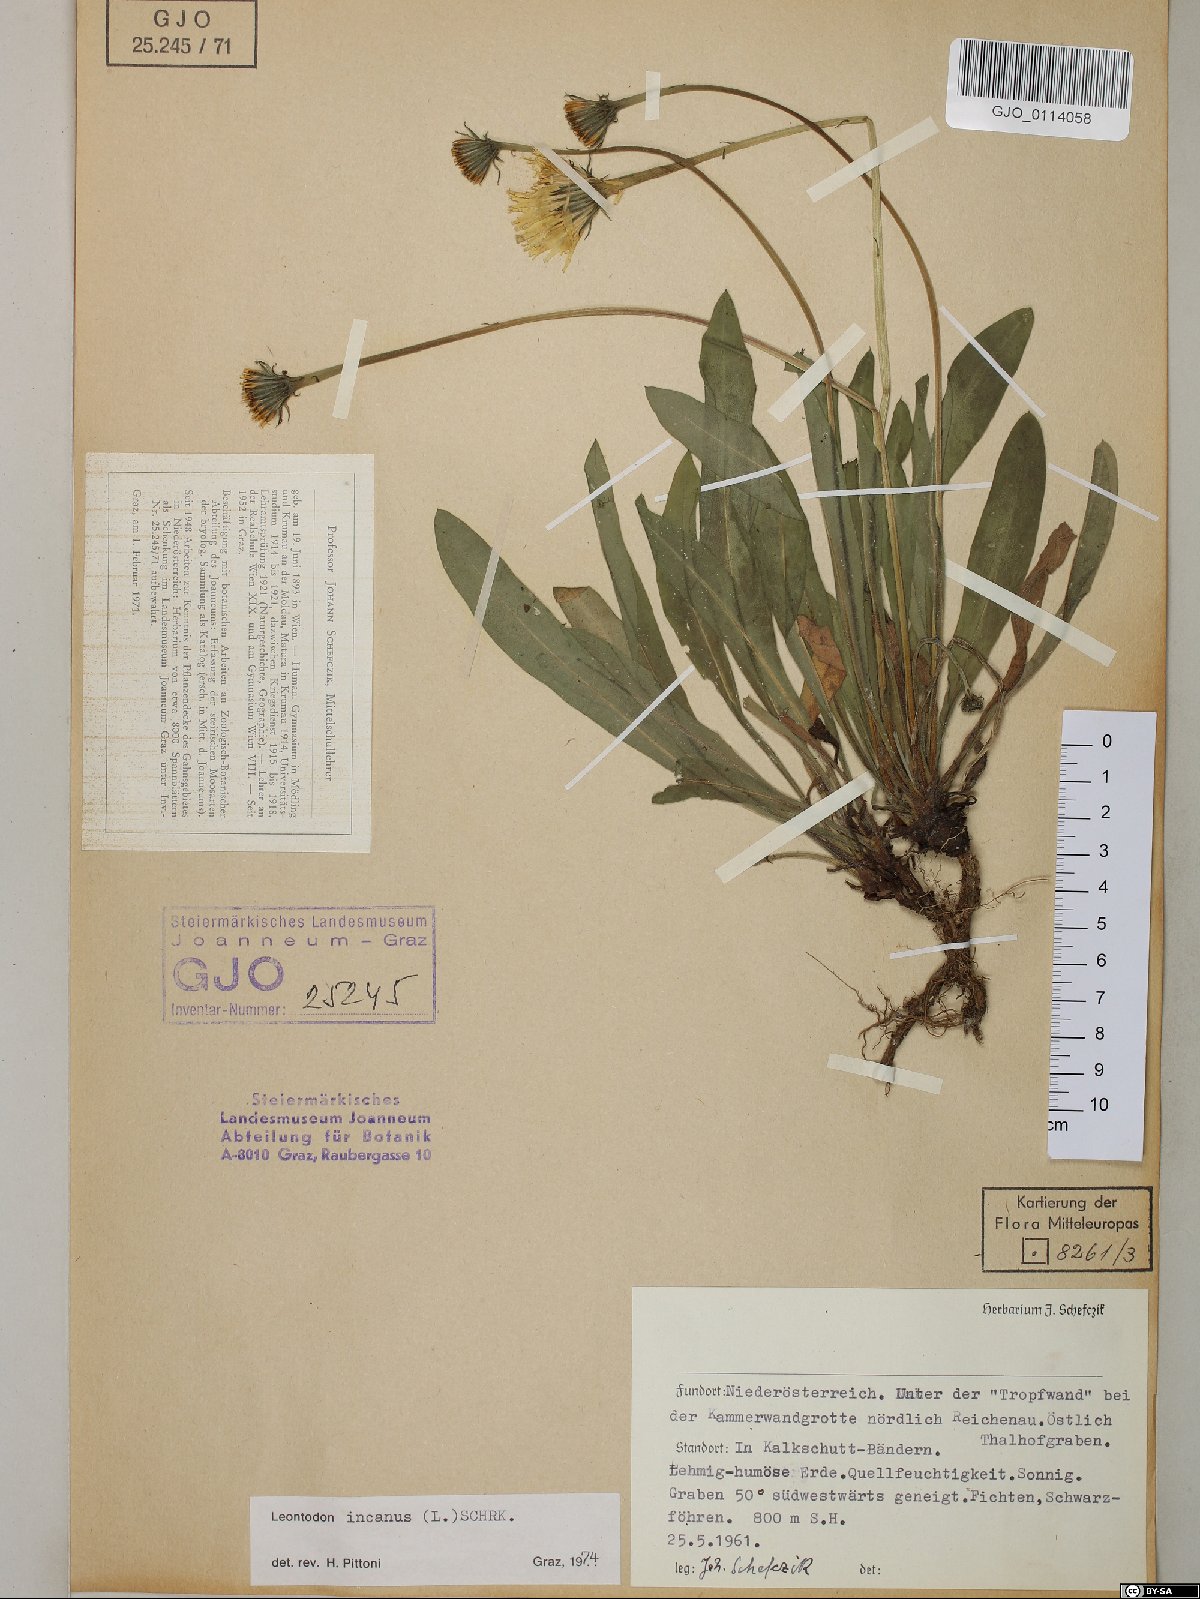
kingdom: Plantae
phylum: Tracheophyta
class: Magnoliopsida
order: Asterales
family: Asteraceae
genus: Leontodon
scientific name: Leontodon incanus
